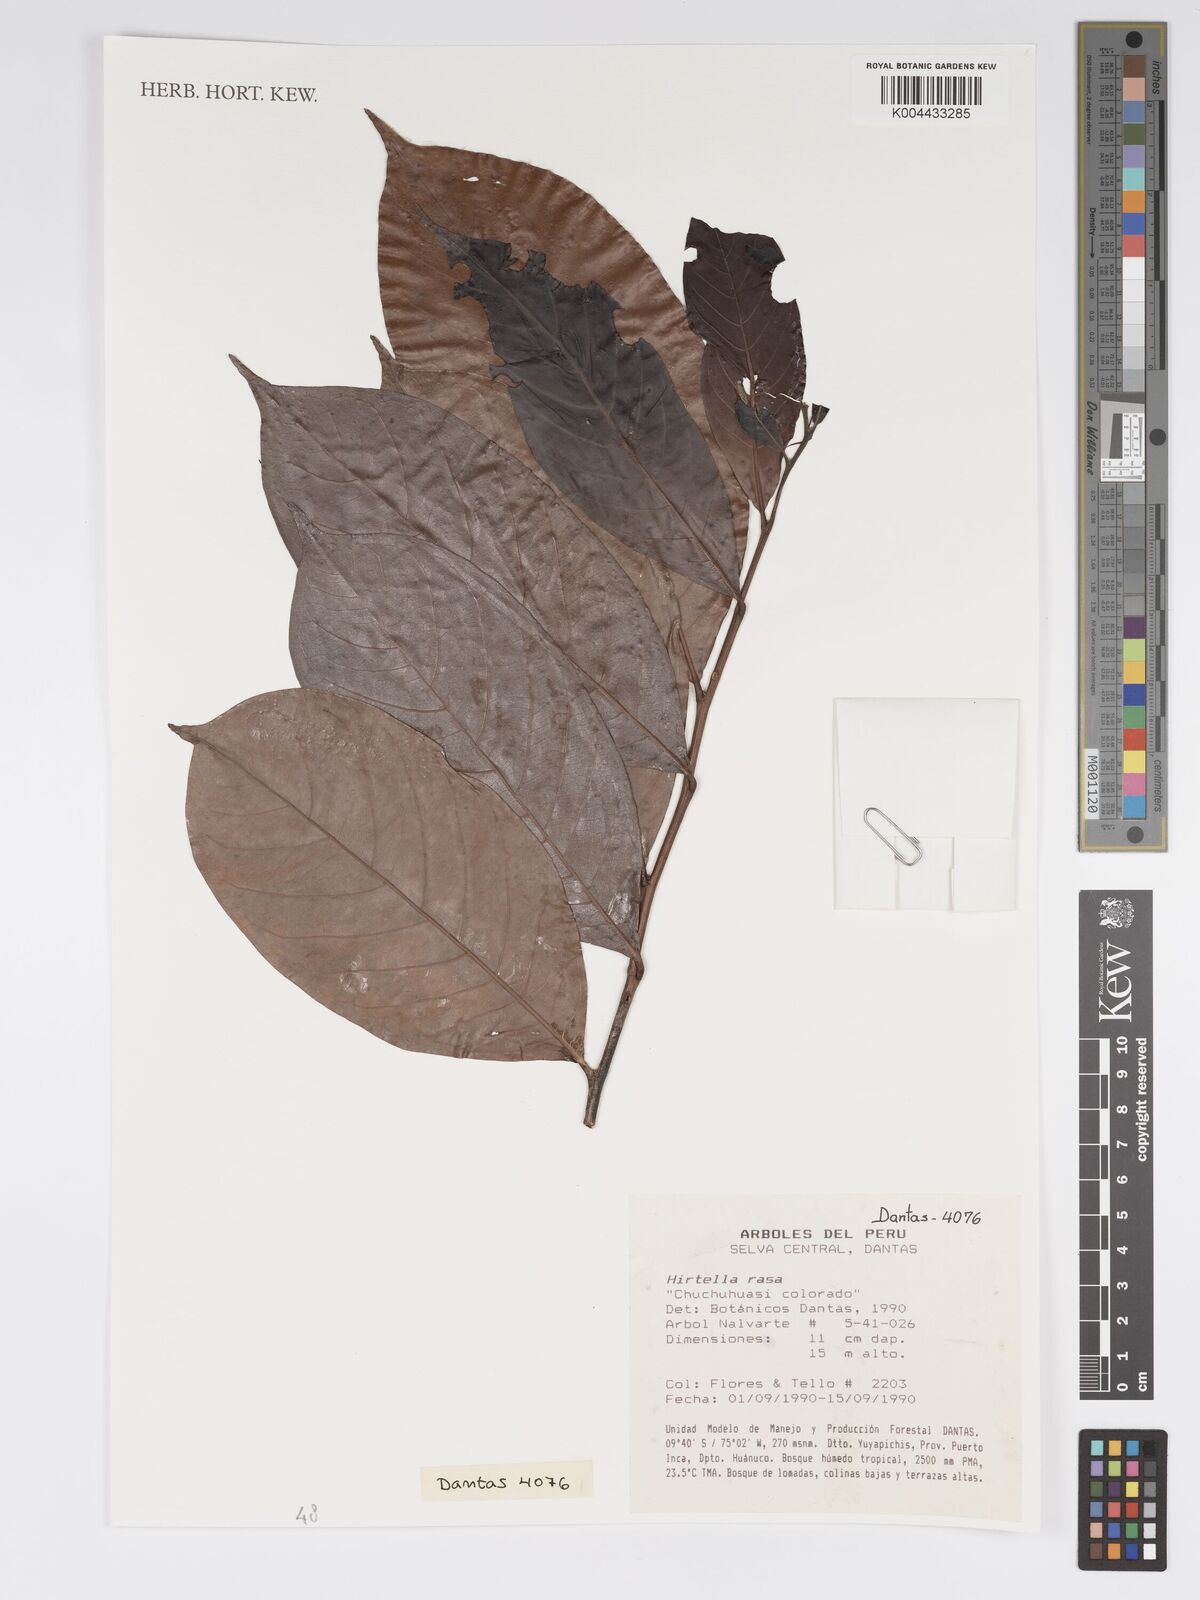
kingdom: Plantae
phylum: Tracheophyta
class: Magnoliopsida
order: Malpighiales
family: Chrysobalanaceae
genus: Hirtella
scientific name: Hirtella rasa
